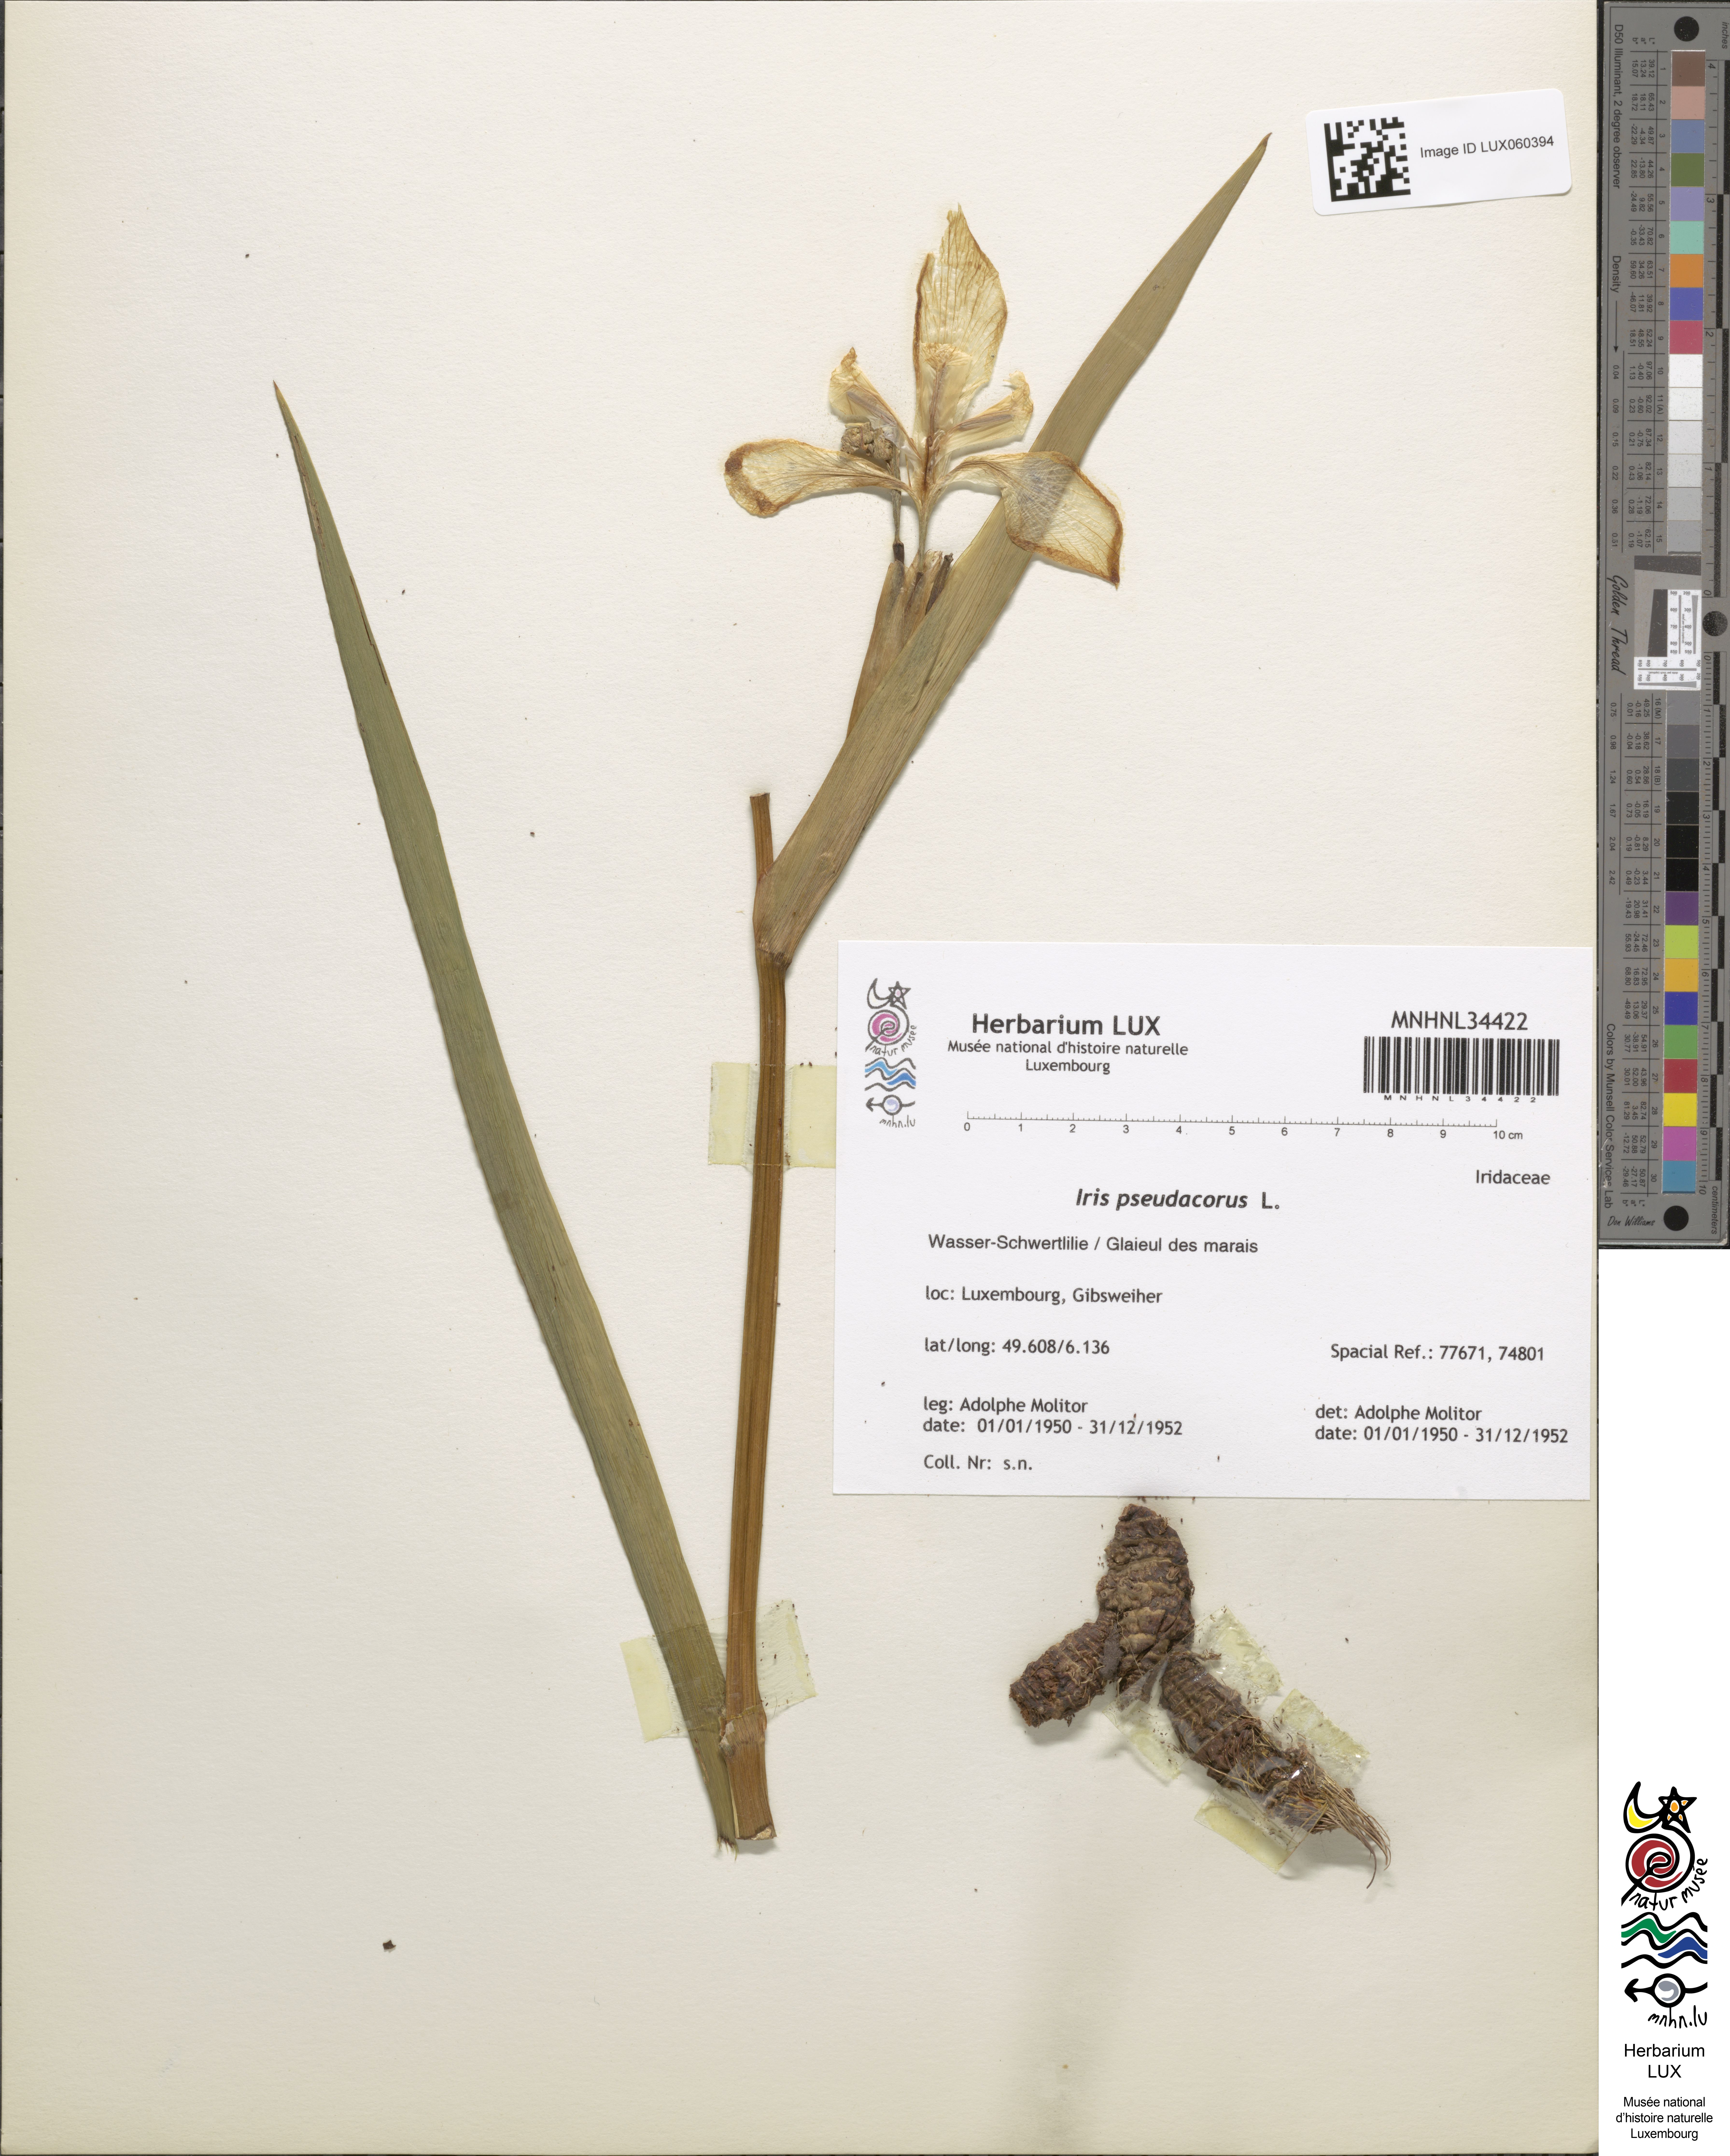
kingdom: Plantae
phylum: Tracheophyta
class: Liliopsida
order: Asparagales
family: Iridaceae
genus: Iris
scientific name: Iris pseudacorus
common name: Yellow flag
